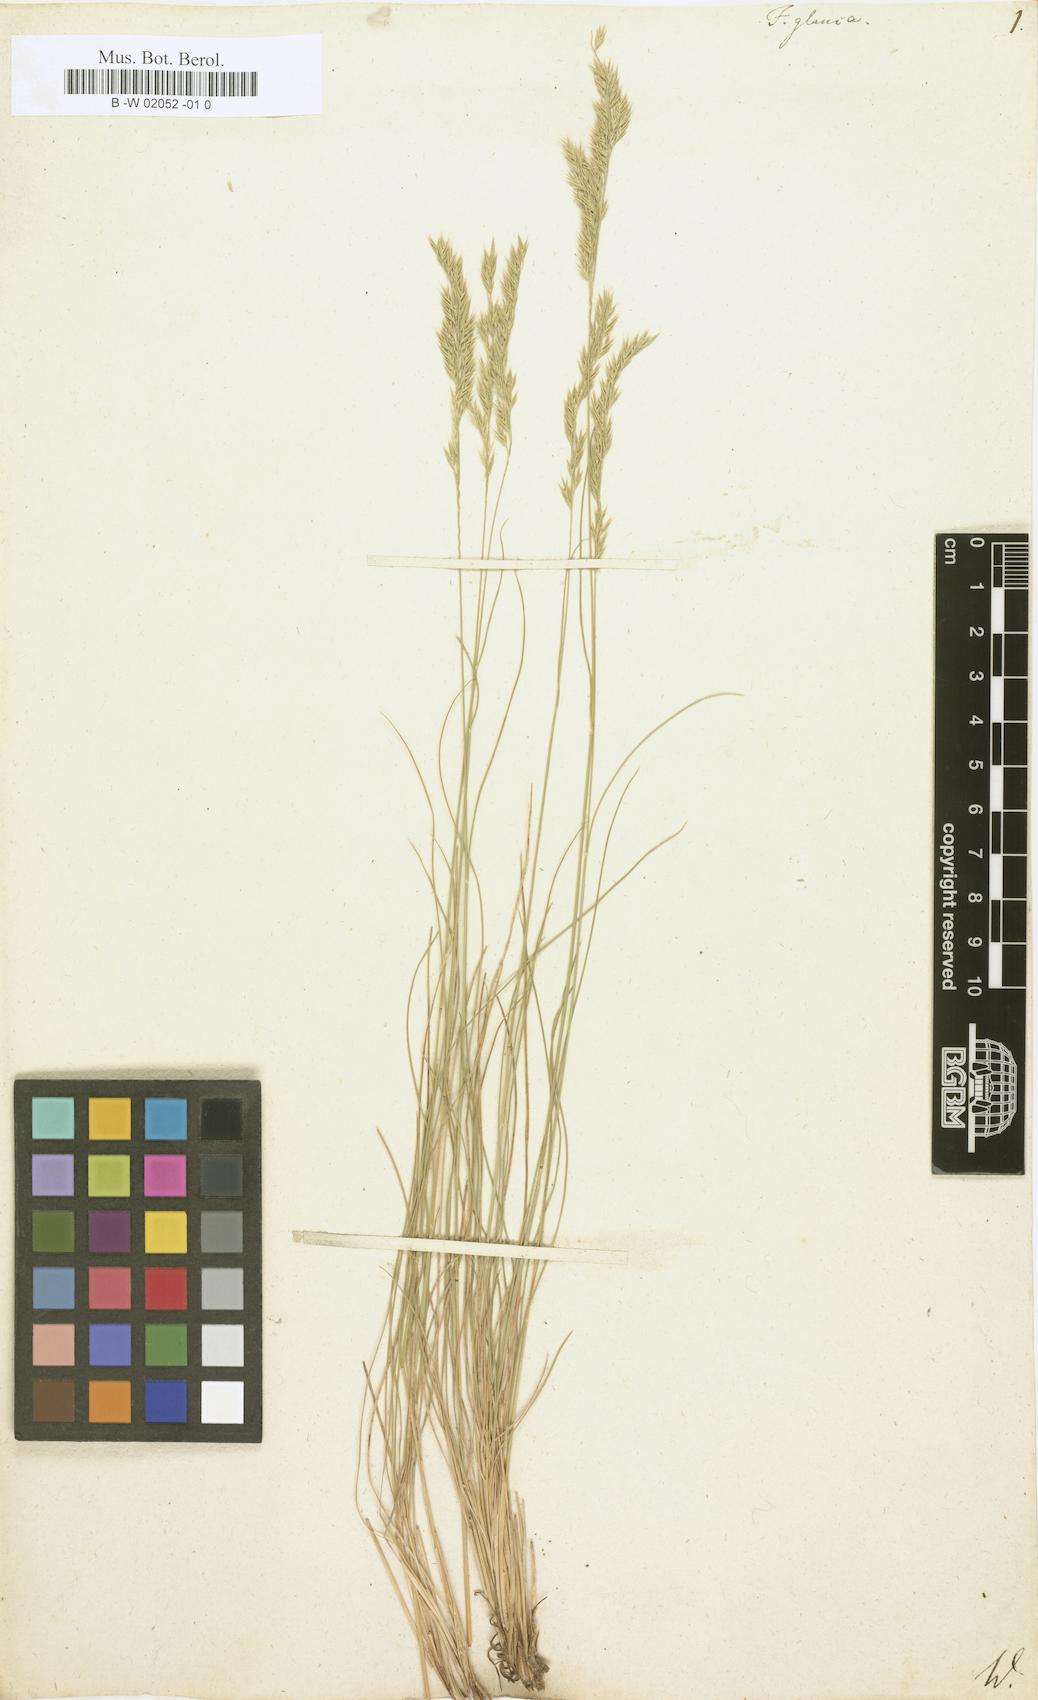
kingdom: Plantae
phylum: Tracheophyta
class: Liliopsida
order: Poales
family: Poaceae
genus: Festuca
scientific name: Festuca glauca
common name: Blue fescue
